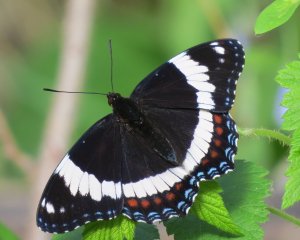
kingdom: Animalia
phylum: Arthropoda
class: Insecta
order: Lepidoptera
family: Nymphalidae
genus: Limenitis
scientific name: Limenitis arthemis
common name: Red-spotted Admiral
